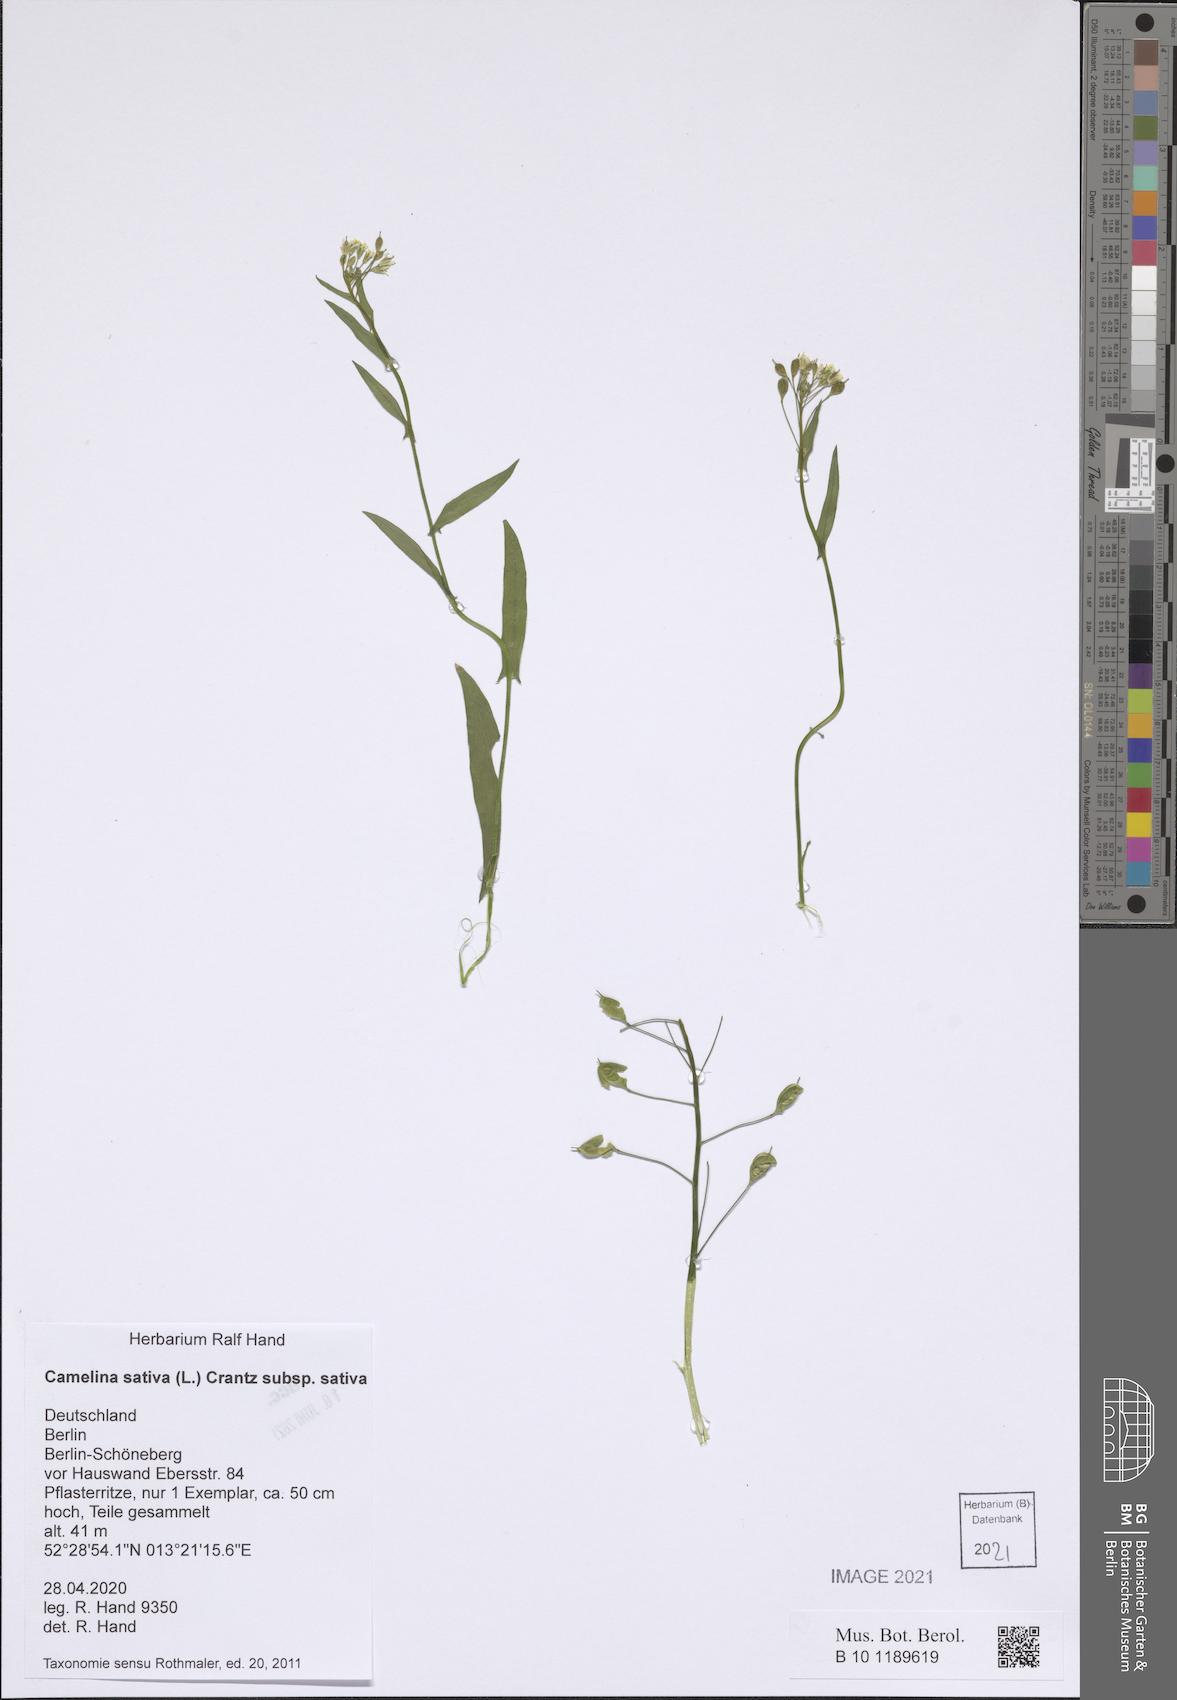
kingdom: Plantae
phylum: Tracheophyta
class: Magnoliopsida
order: Brassicales
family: Brassicaceae
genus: Camelina
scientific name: Camelina sativa
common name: Gold-of-pleasure
